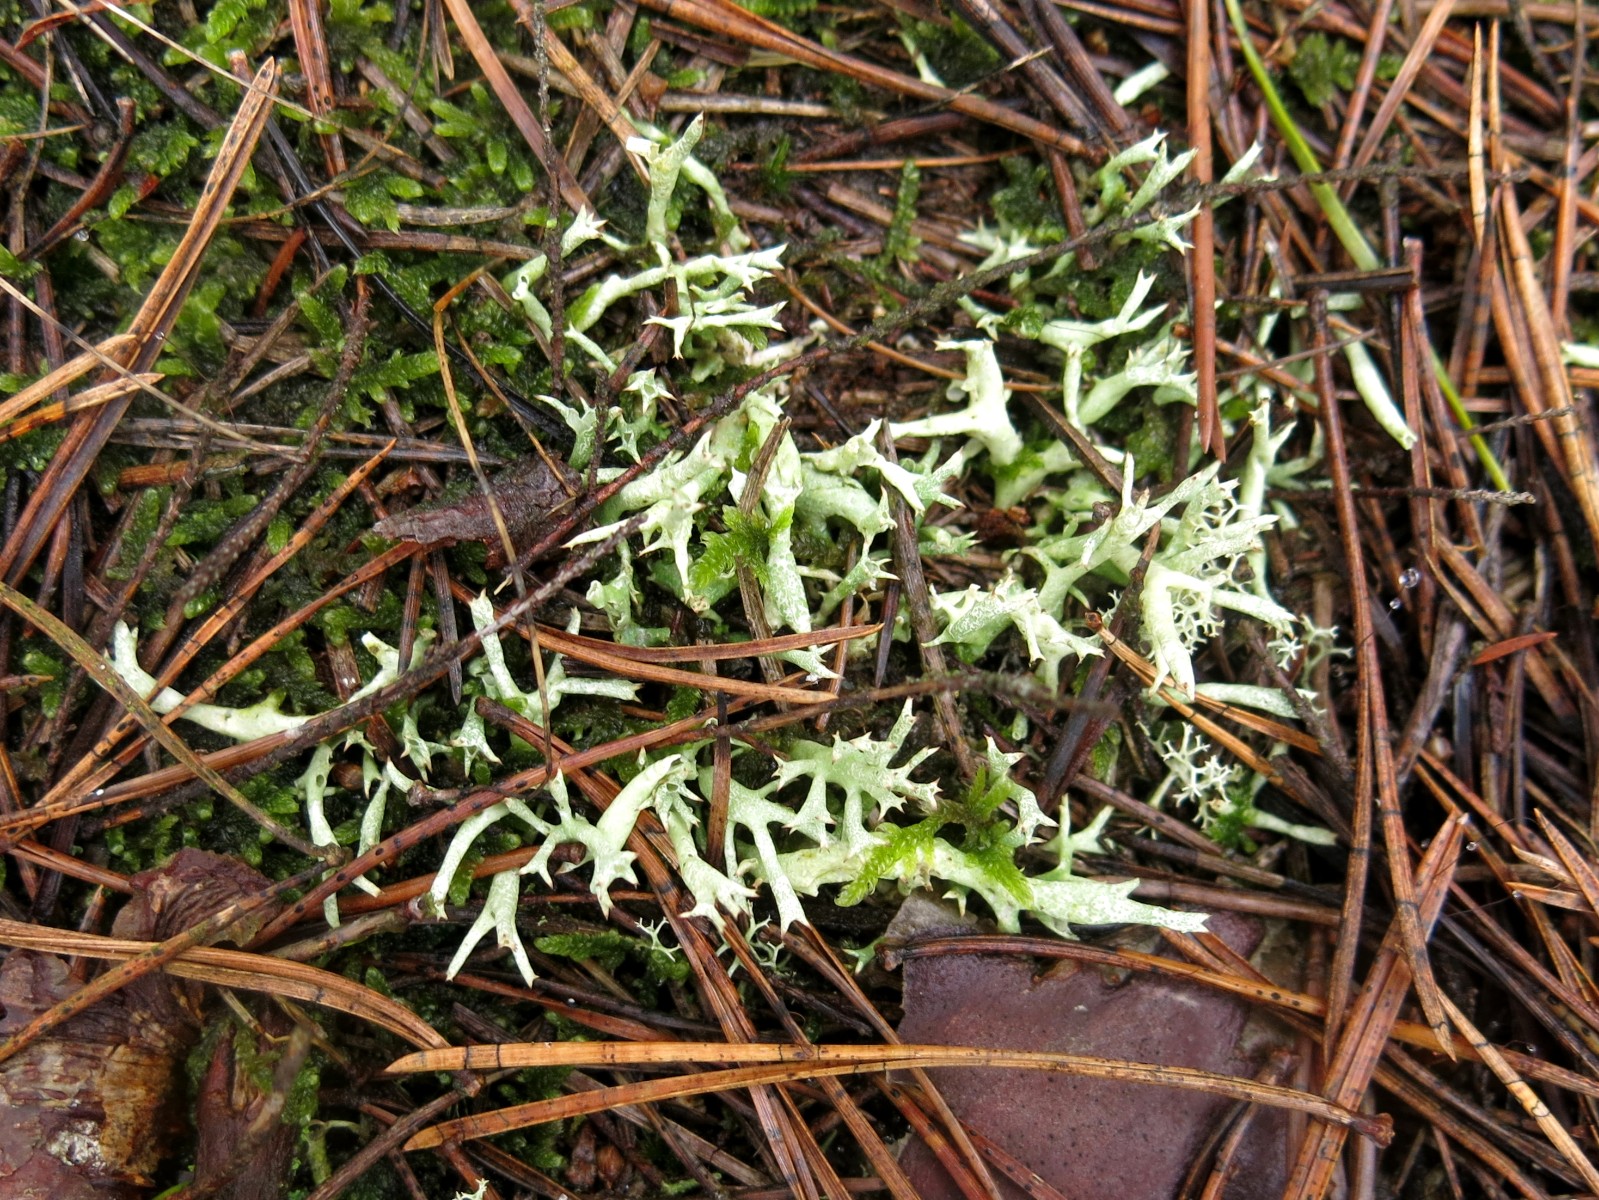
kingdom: Fungi
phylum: Ascomycota
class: Lecanoromycetes
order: Lecanorales
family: Cladoniaceae
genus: Cladonia
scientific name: Cladonia uncialis
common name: pigget bægerlav
